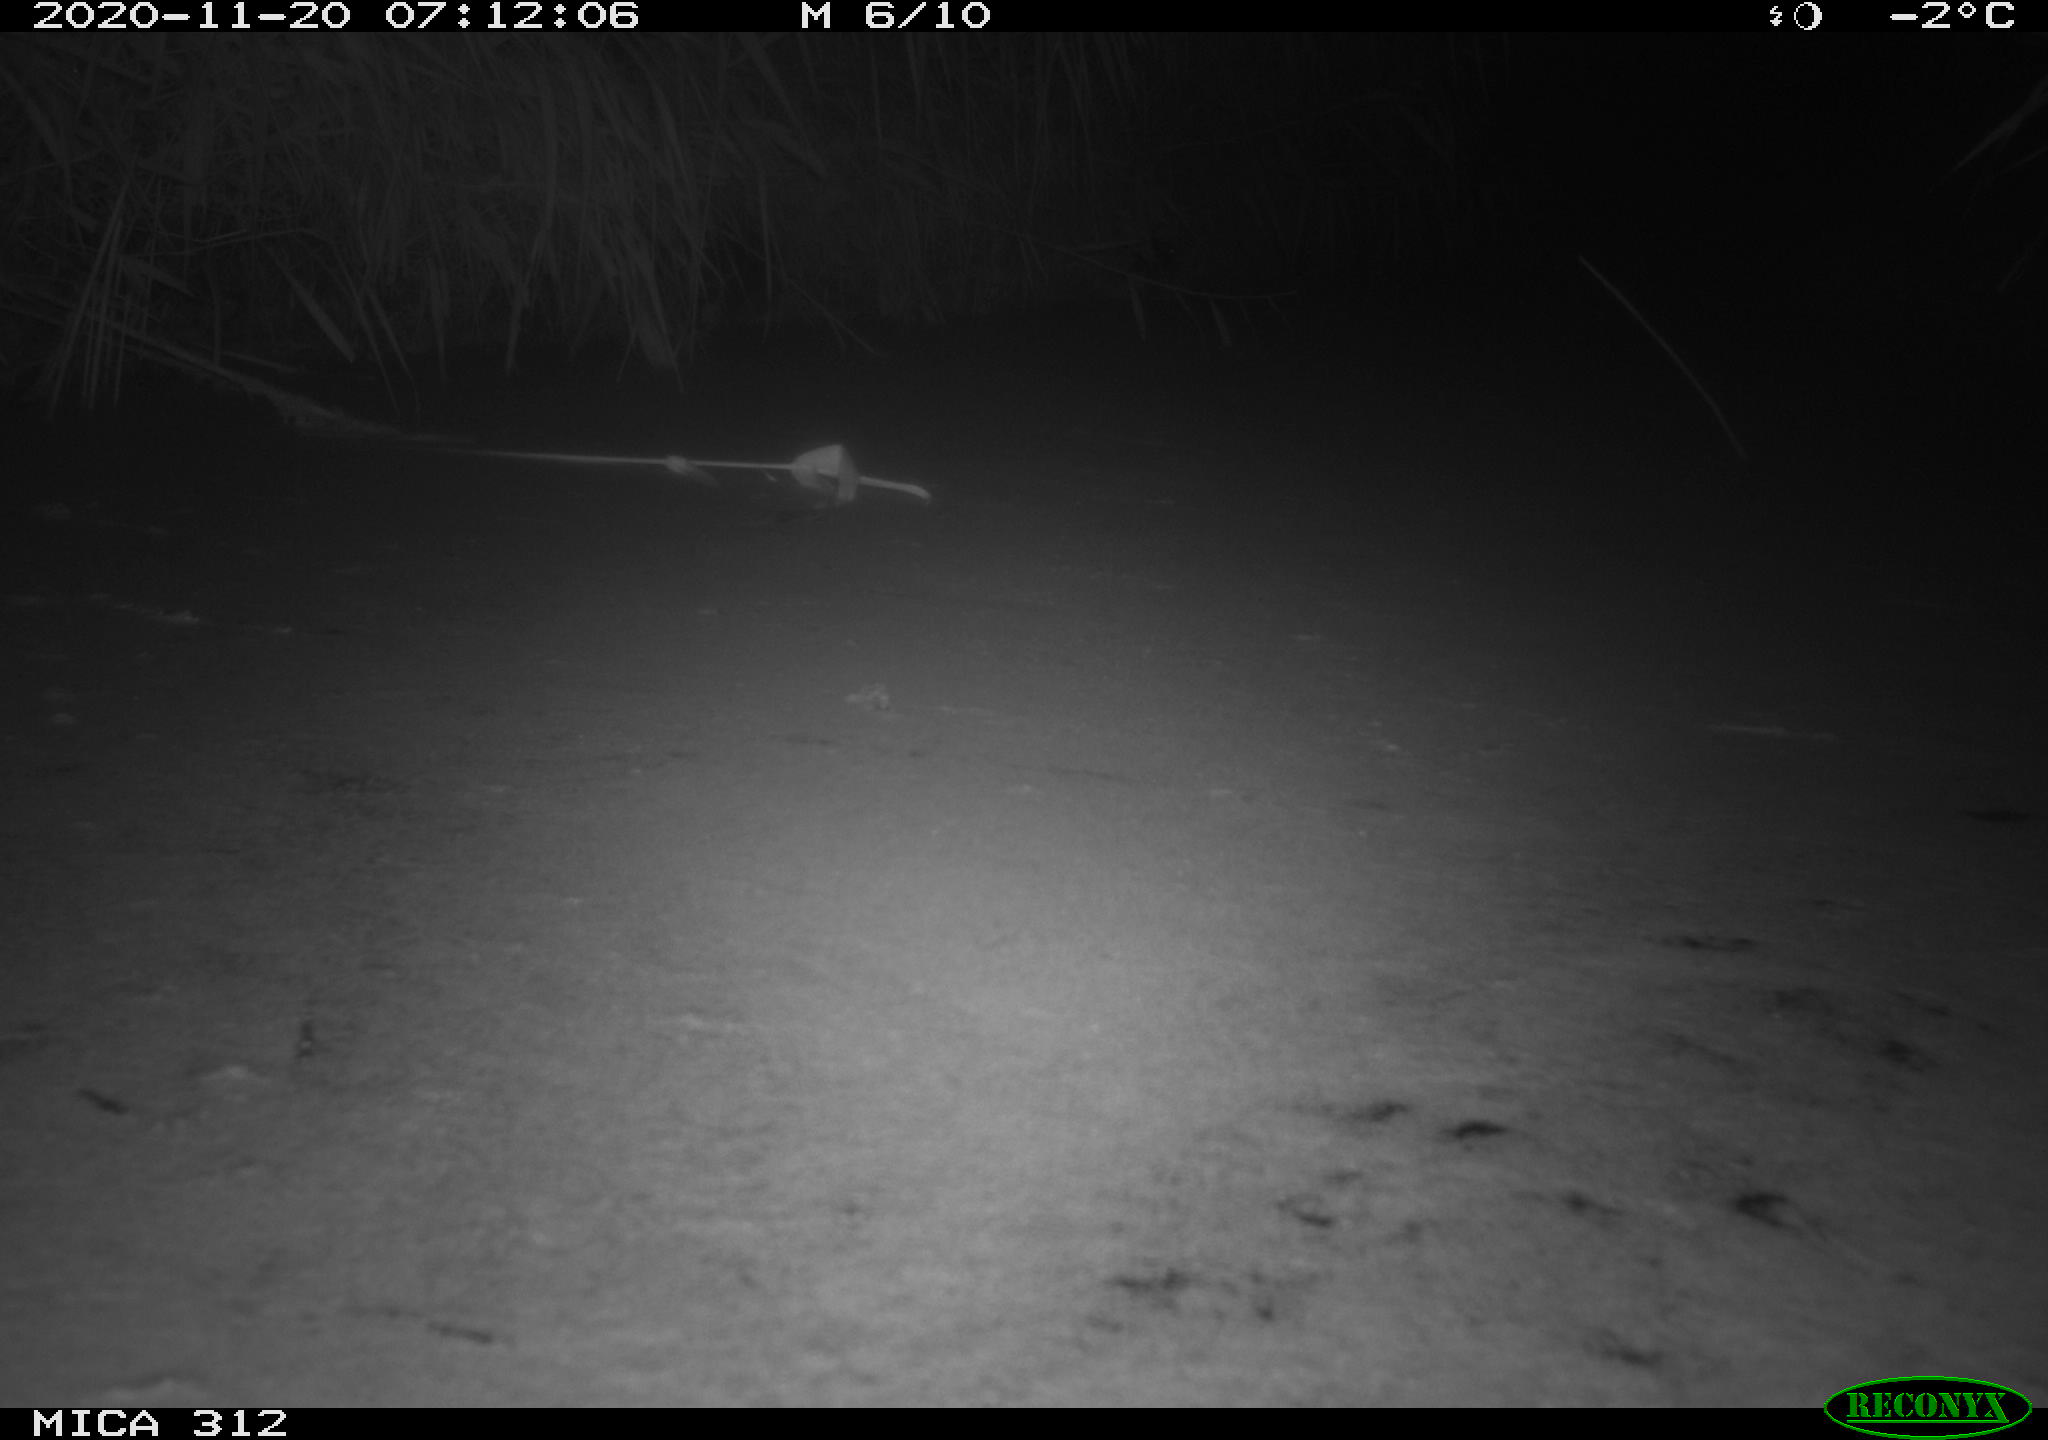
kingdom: Animalia
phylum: Chordata
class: Mammalia
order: Rodentia
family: Muridae
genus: Rattus
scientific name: Rattus norvegicus
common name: Brown rat
